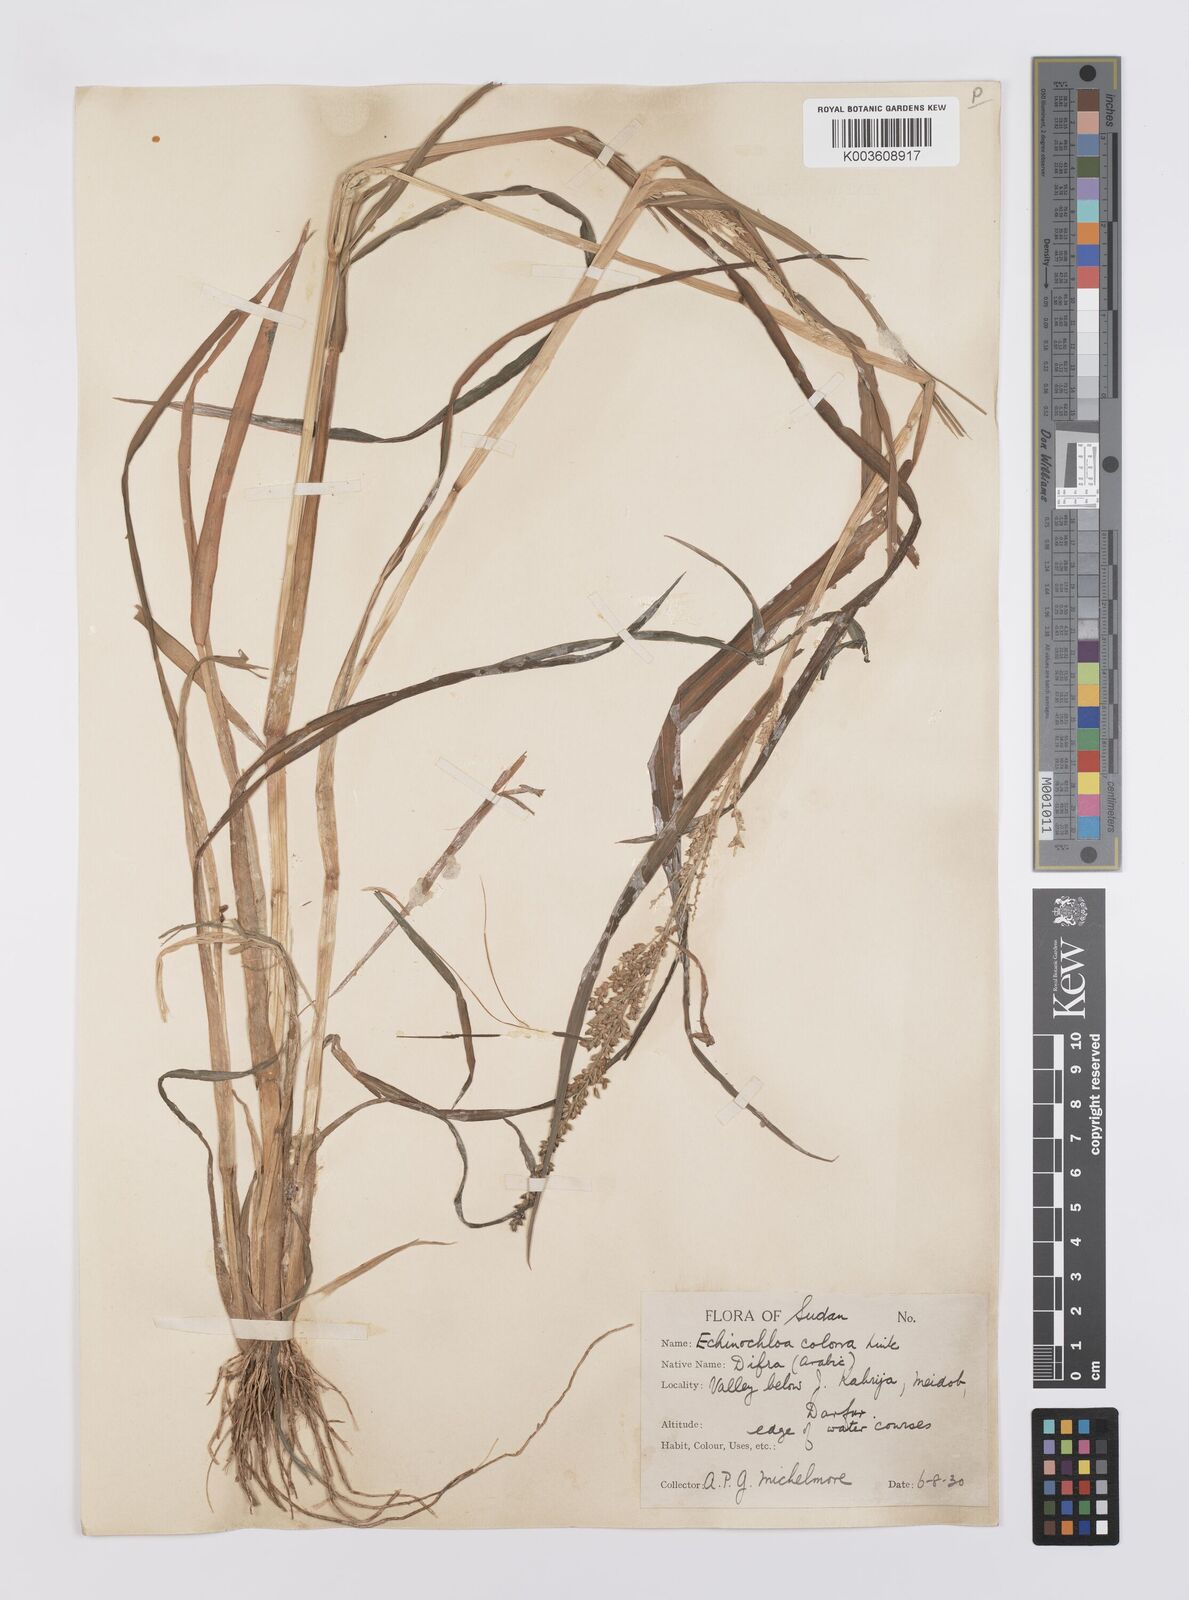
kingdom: Plantae
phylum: Tracheophyta
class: Liliopsida
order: Poales
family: Poaceae
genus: Echinochloa
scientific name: Echinochloa colonum
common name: Jungle rice
